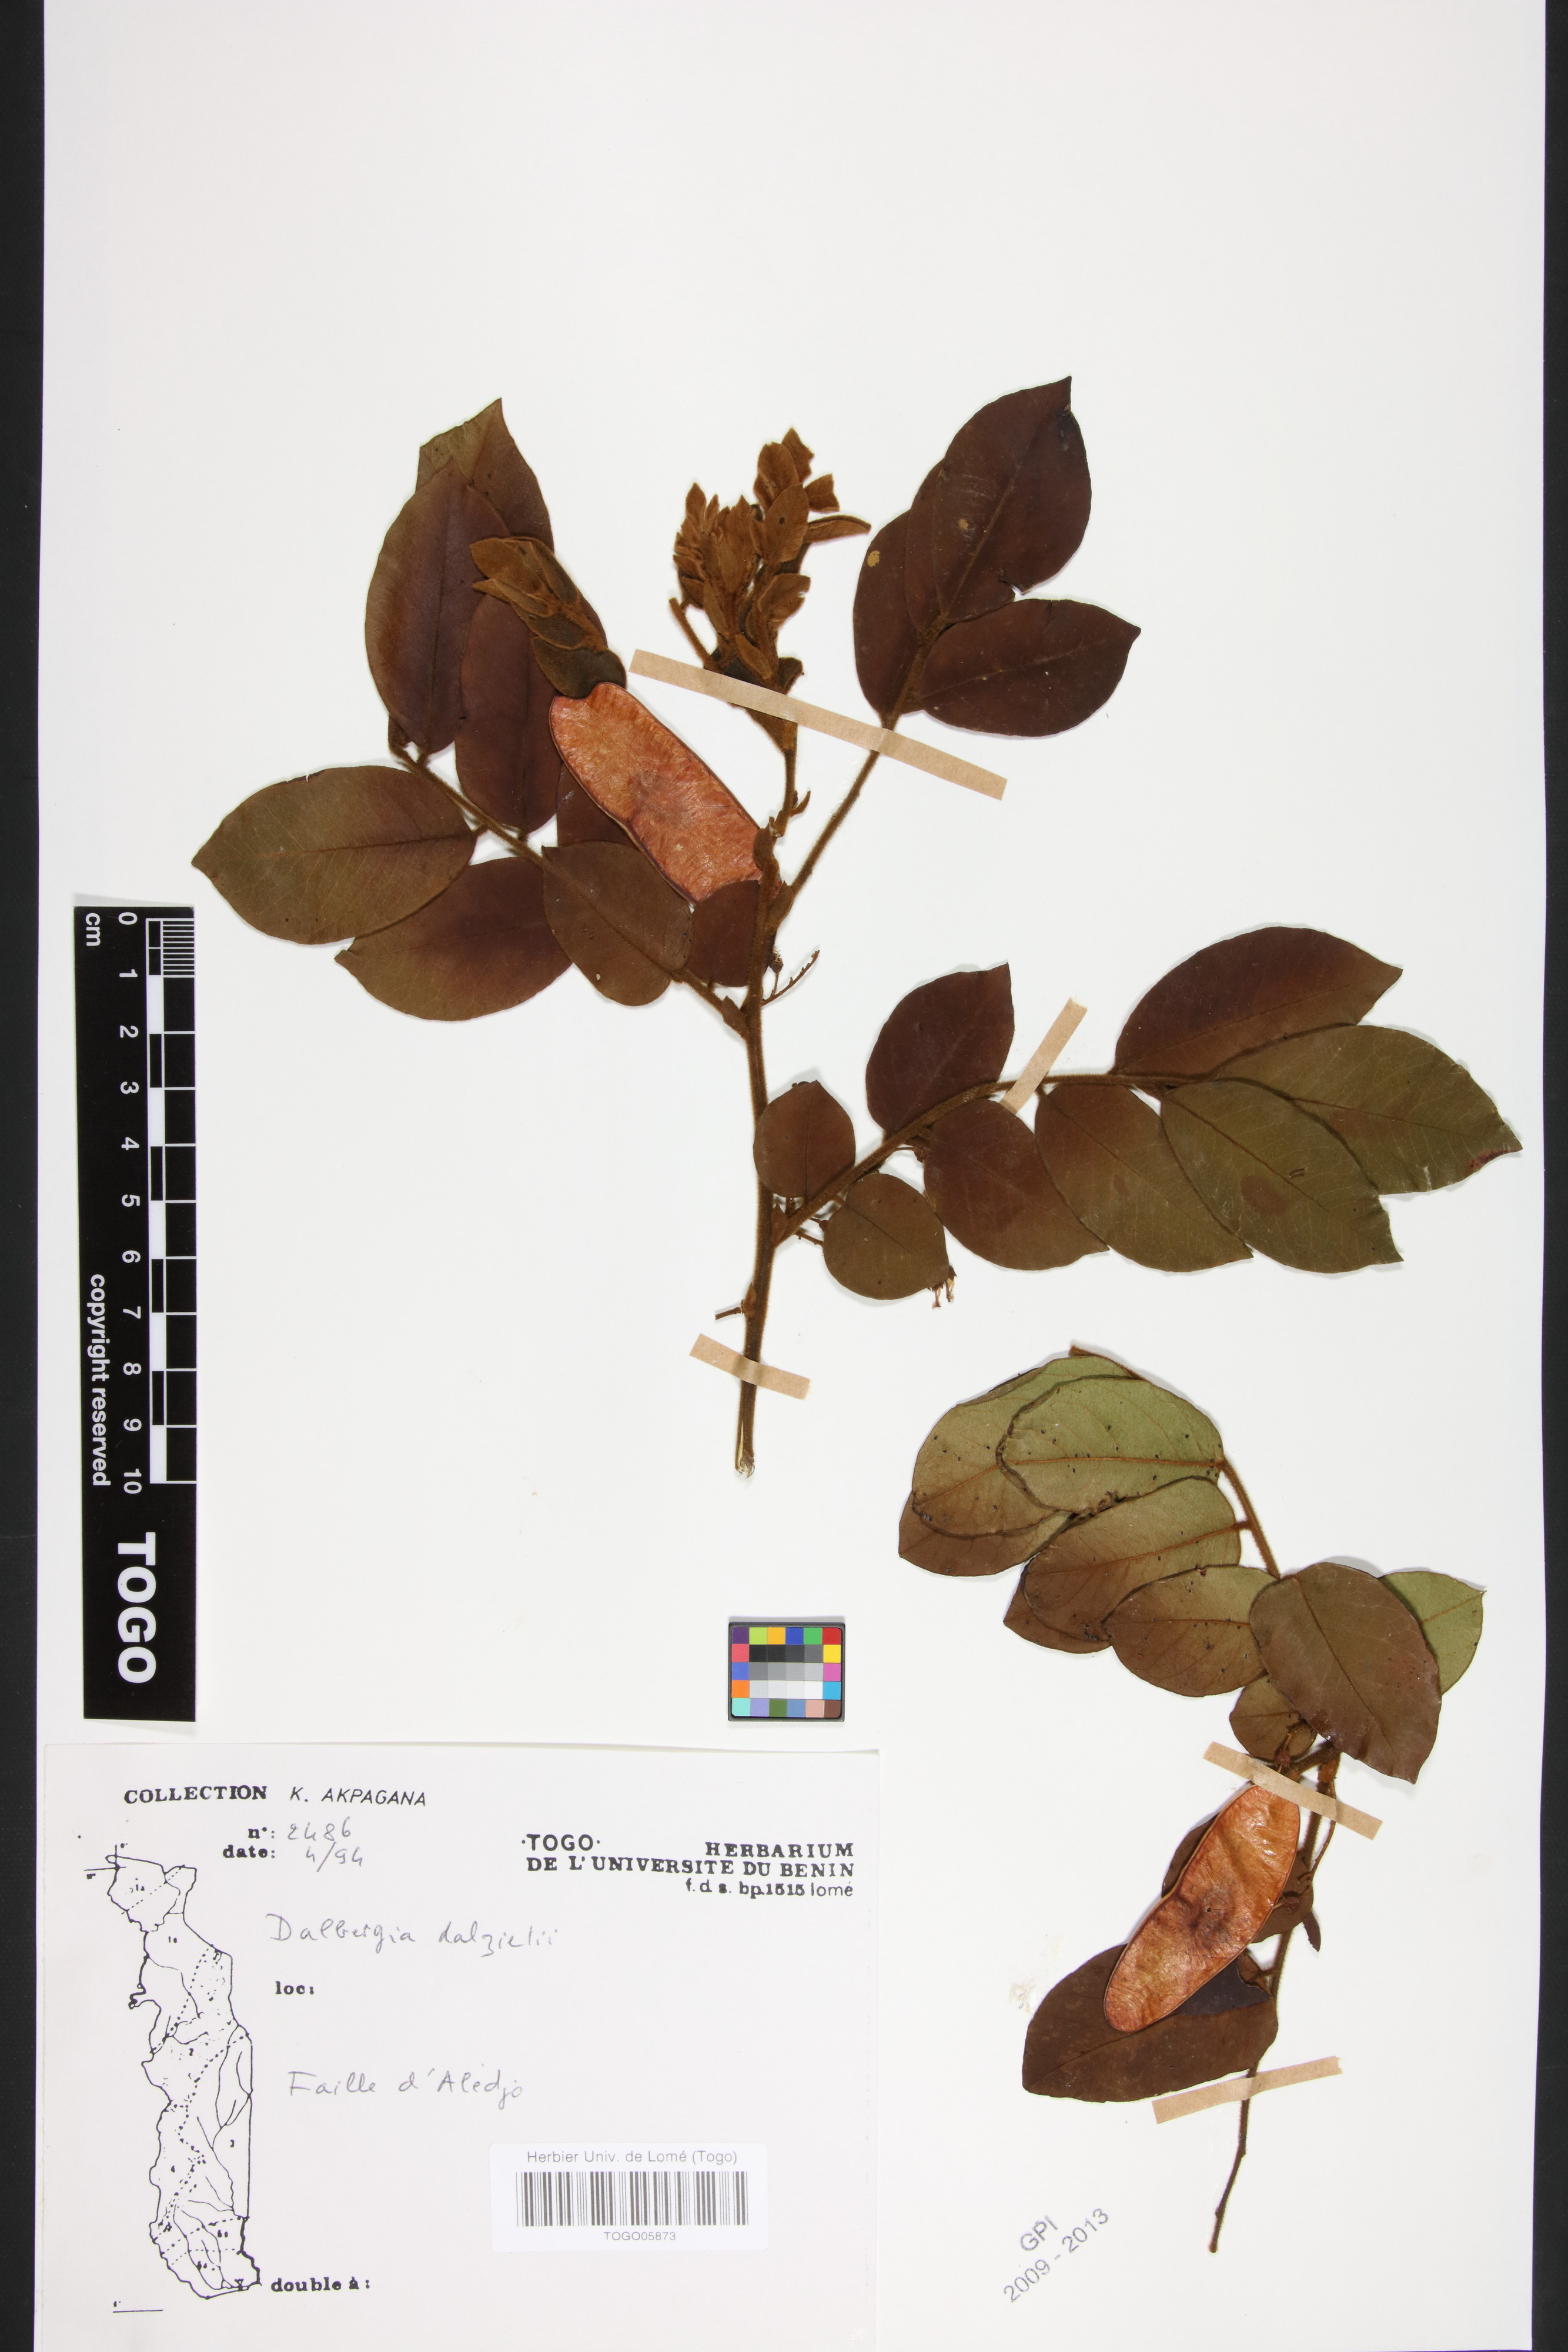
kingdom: Plantae
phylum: Tracheophyta
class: Magnoliopsida
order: Fabales
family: Fabaceae
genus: Dalbergia
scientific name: Dalbergia dalzielii ex
